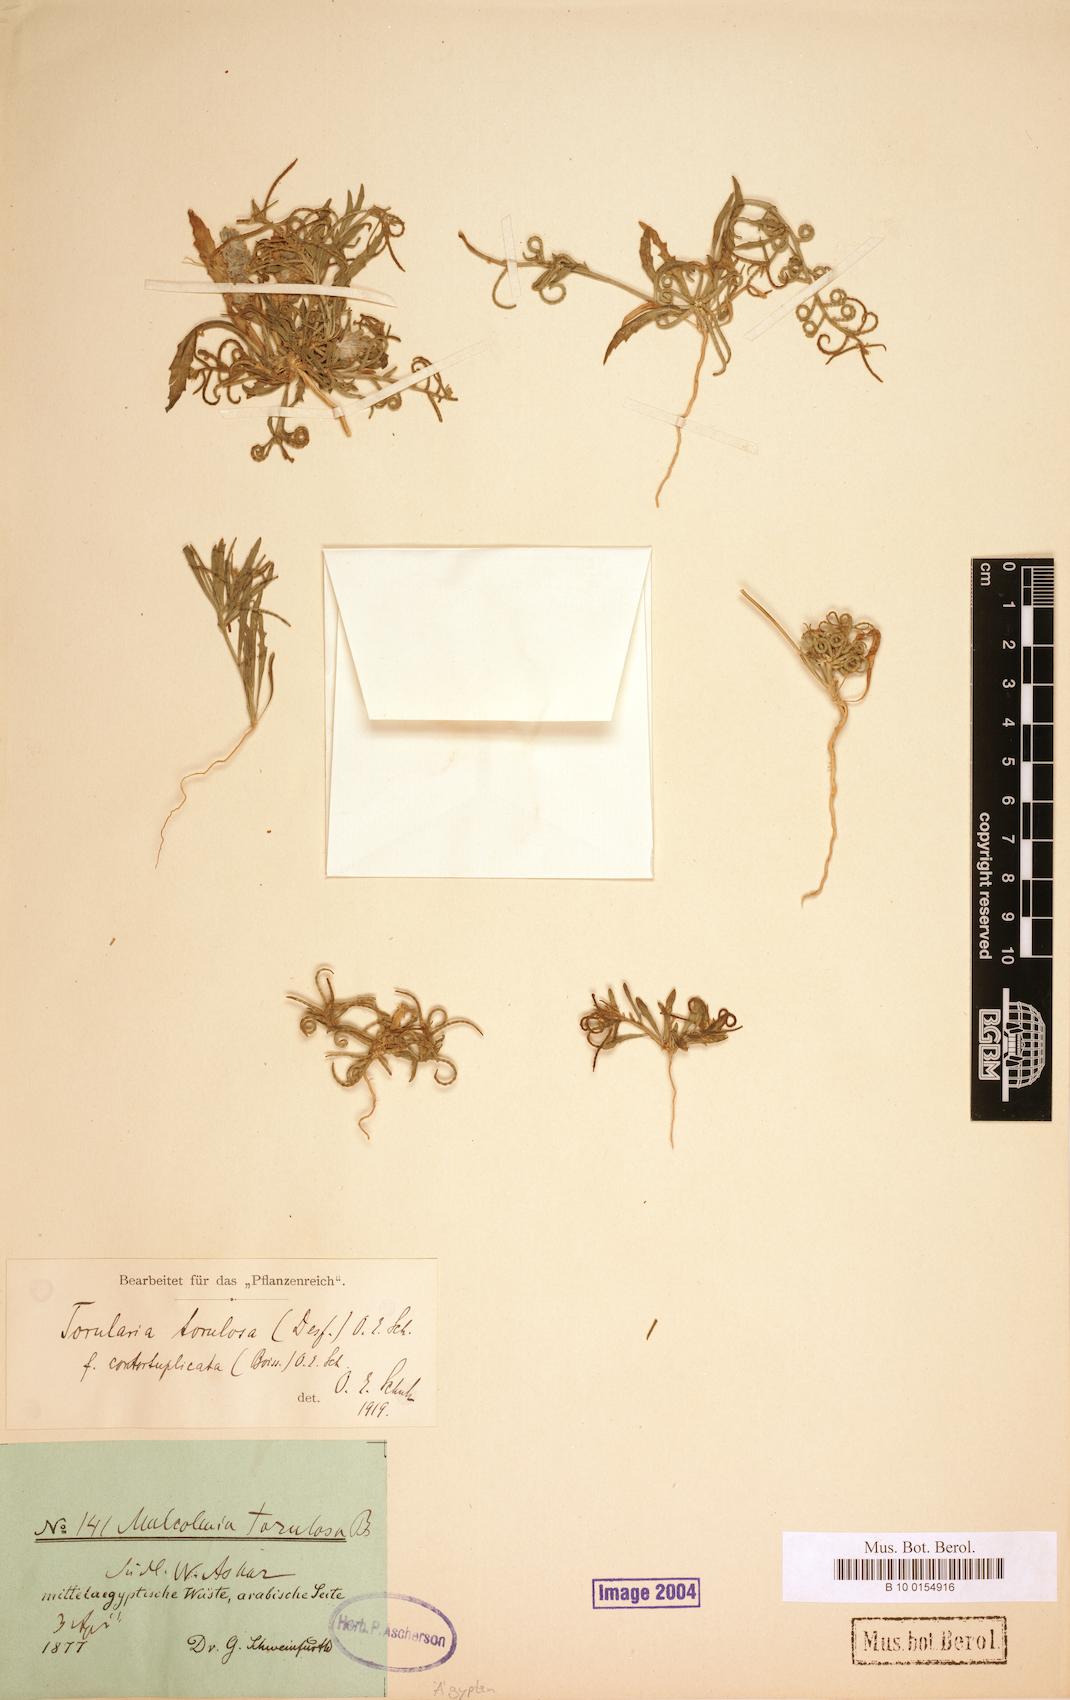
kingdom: Plantae
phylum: Tracheophyta
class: Magnoliopsida
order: Brassicales
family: Brassicaceae
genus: Neotorularia
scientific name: Neotorularia torulosa
